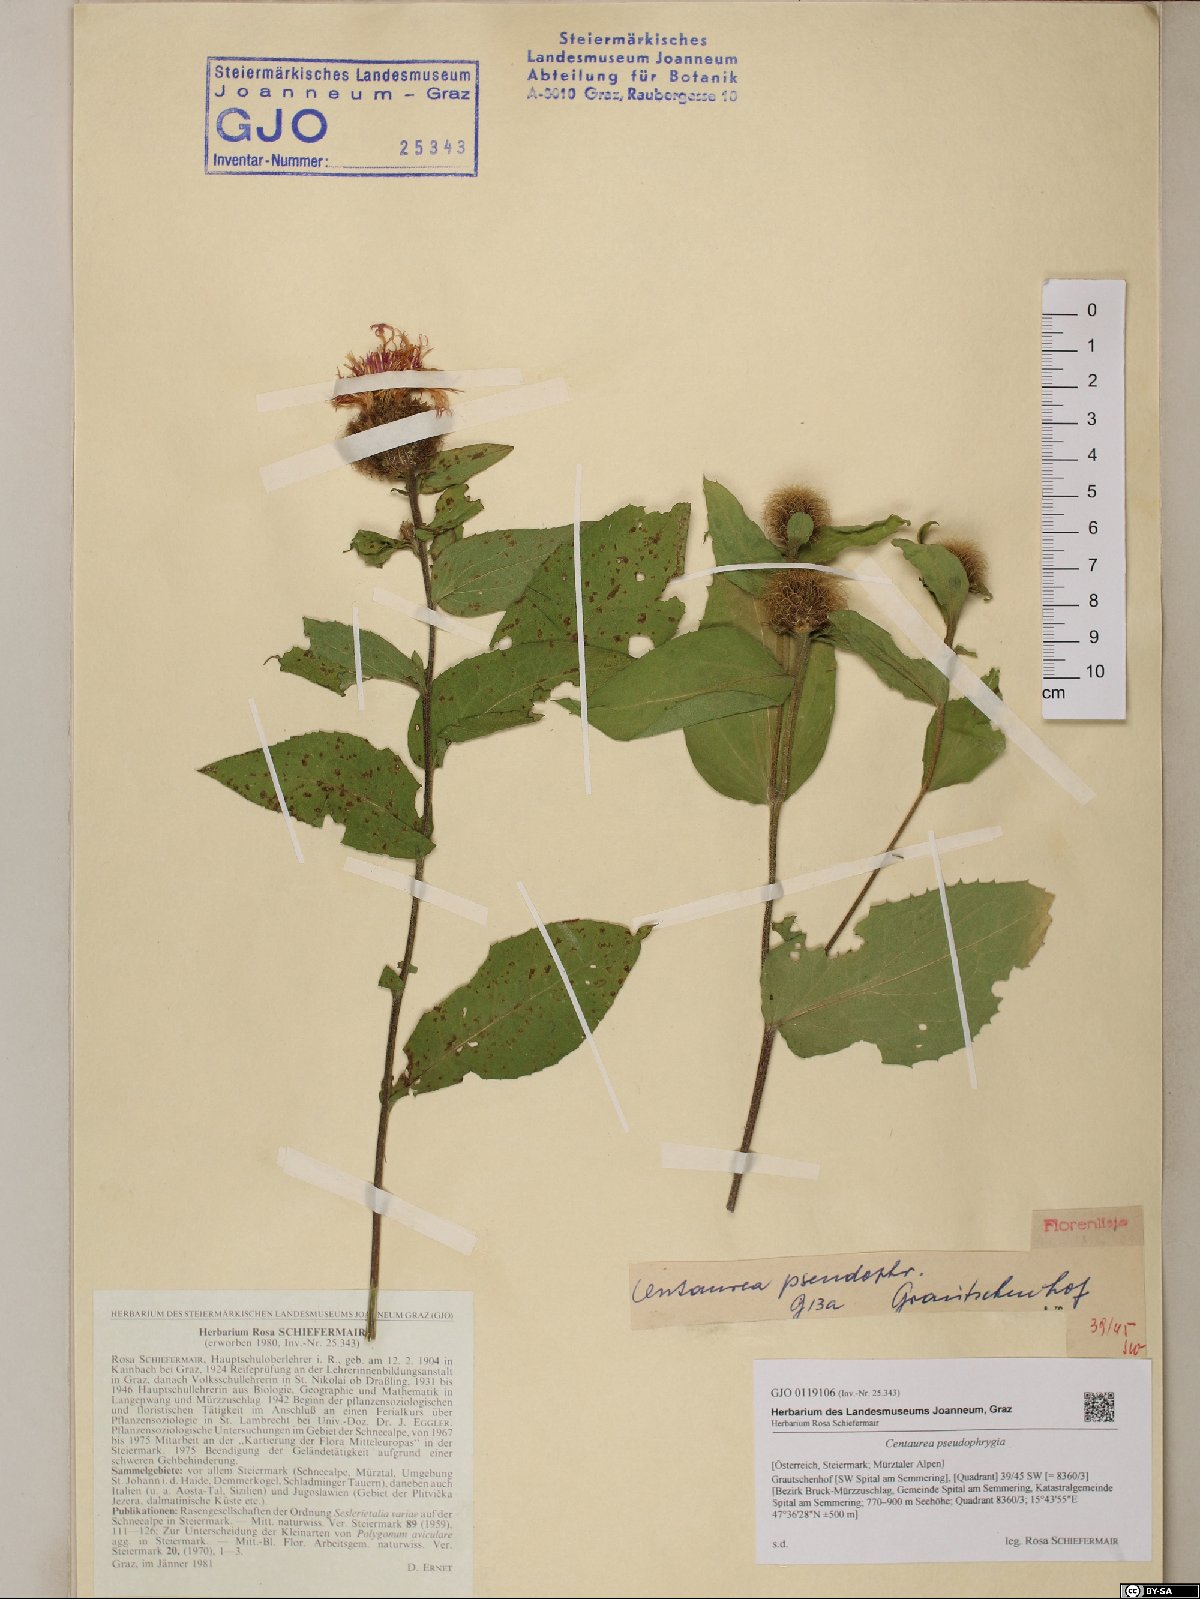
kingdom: Plantae
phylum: Tracheophyta
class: Magnoliopsida
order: Asterales
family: Asteraceae
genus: Centaurea
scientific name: Centaurea pseudophrygia
